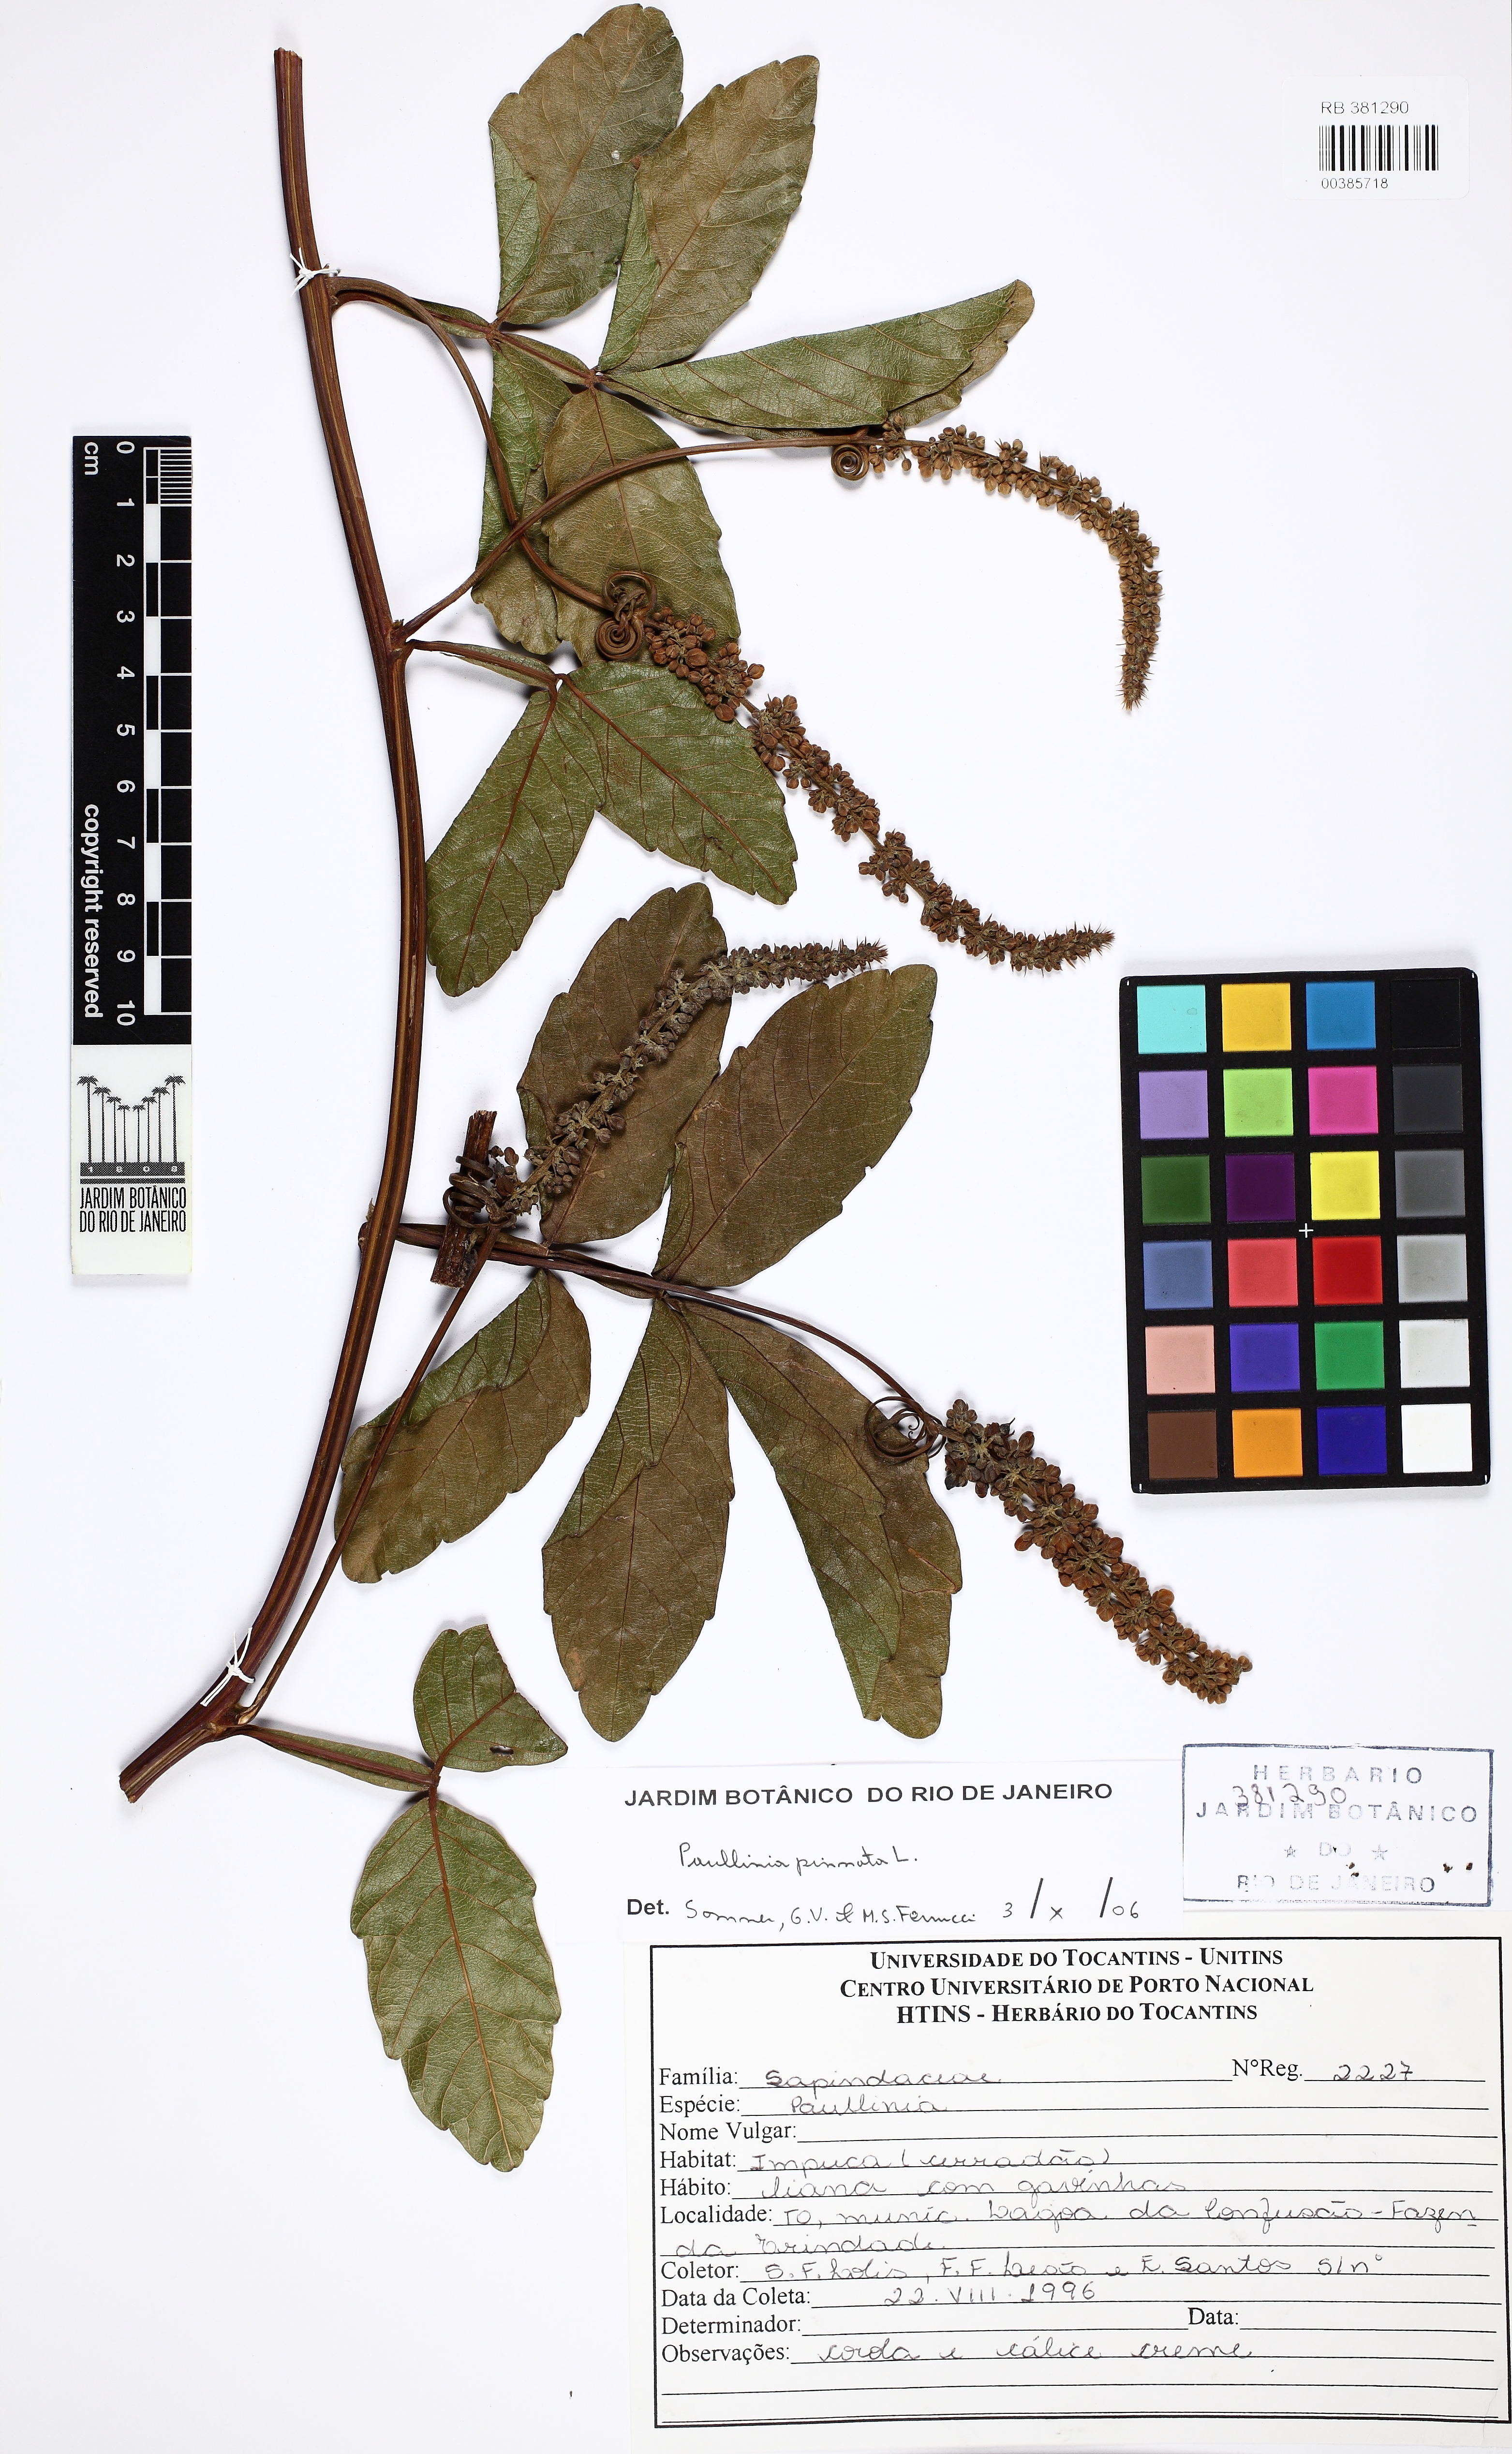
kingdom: Plantae
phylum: Tracheophyta
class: Magnoliopsida
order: Sapindales
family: Sapindaceae
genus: Paullinia
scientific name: Paullinia pinnata
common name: Barbasco
